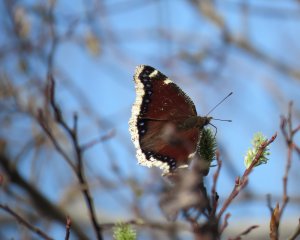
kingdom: Animalia
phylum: Arthropoda
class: Insecta
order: Lepidoptera
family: Nymphalidae
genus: Nymphalis
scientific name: Nymphalis antiopa
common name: Mourning Cloak
